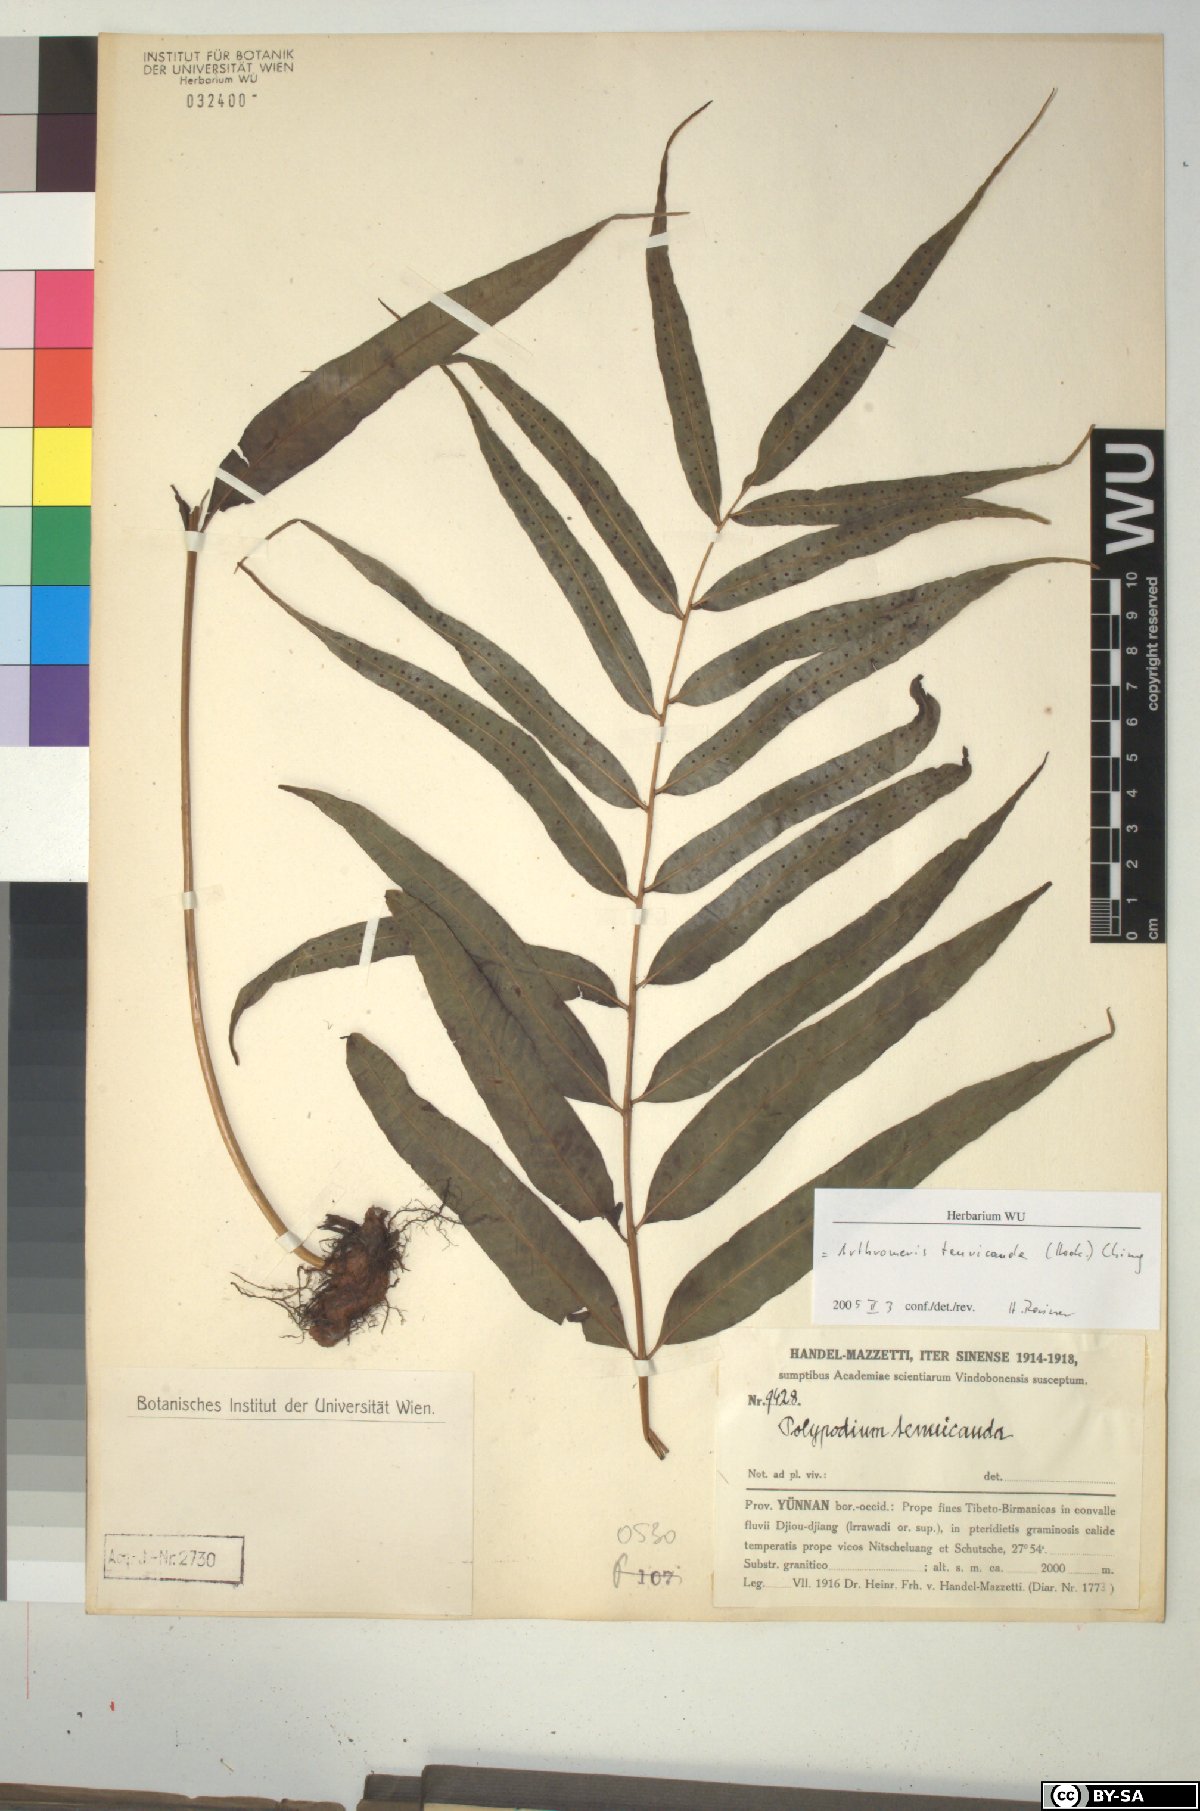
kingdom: Plantae
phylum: Tracheophyta
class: Polypodiopsida
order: Polypodiales
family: Polypodiaceae
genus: Selliguea
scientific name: Selliguea tenuicauda
